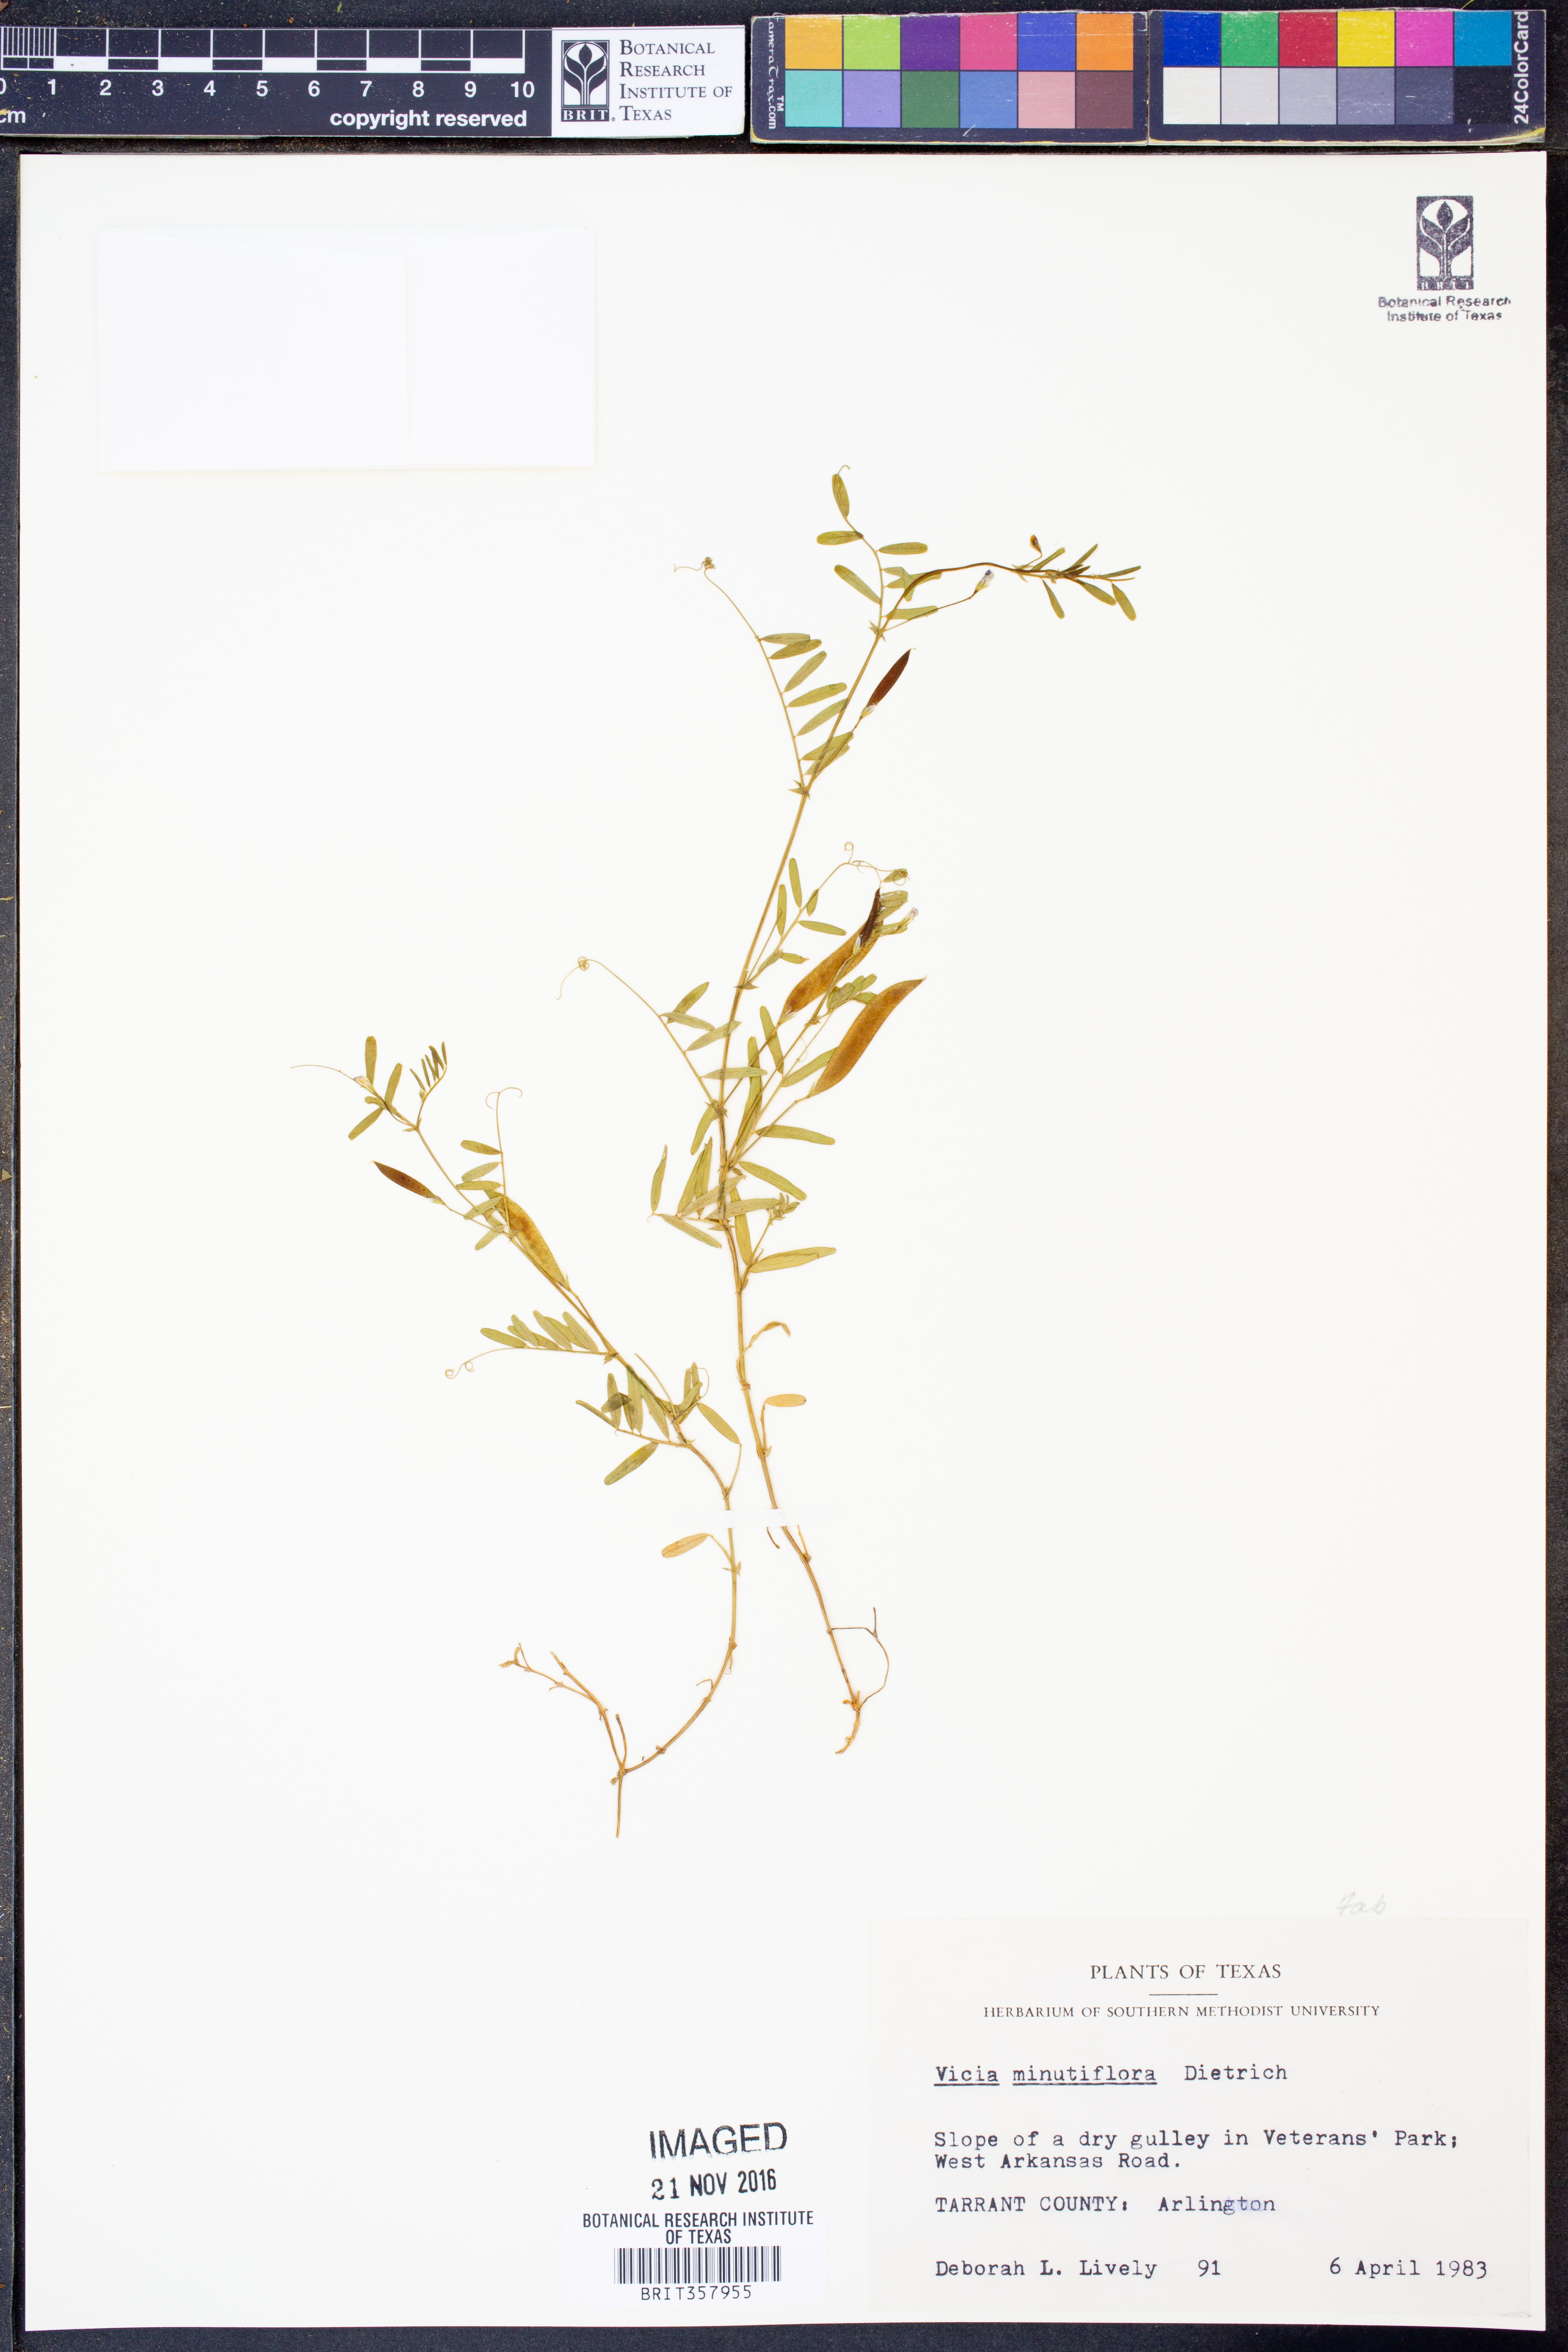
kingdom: Plantae
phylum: Tracheophyta
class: Magnoliopsida
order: Fabales
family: Fabaceae
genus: Vicia
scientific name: Vicia minutiflora
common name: Pygmy-flower vetch
